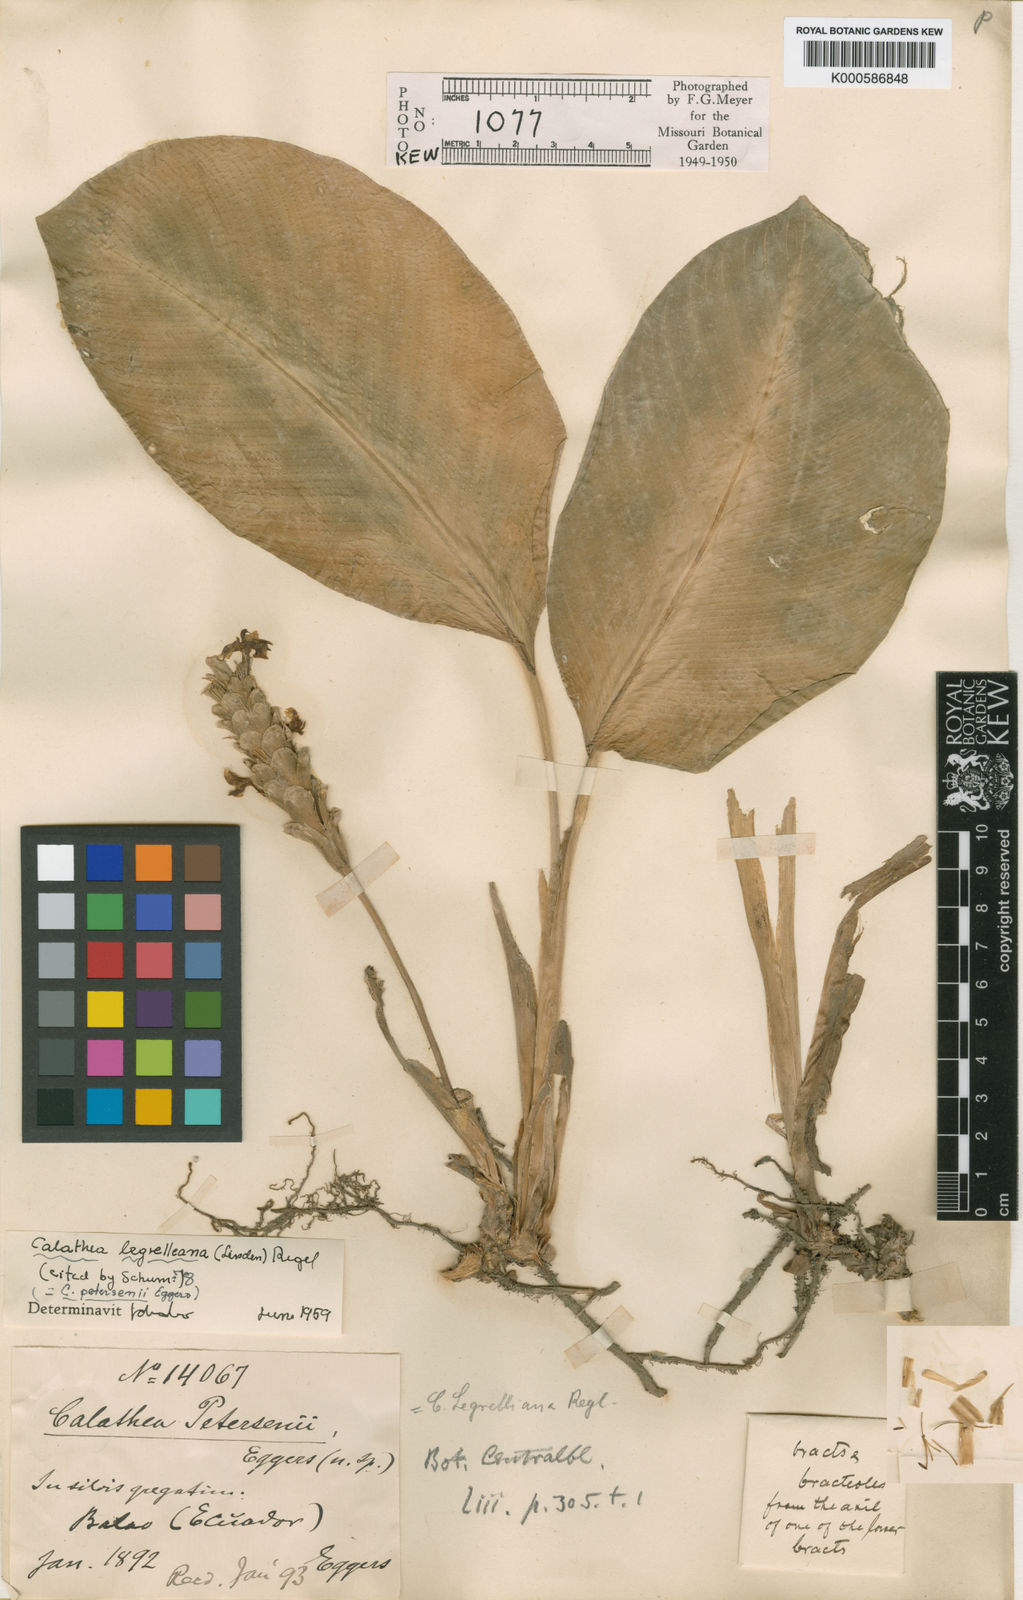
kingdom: Plantae
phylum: Tracheophyta
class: Liliopsida
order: Zingiberales
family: Marantaceae
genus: Calathea
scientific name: Calathea
